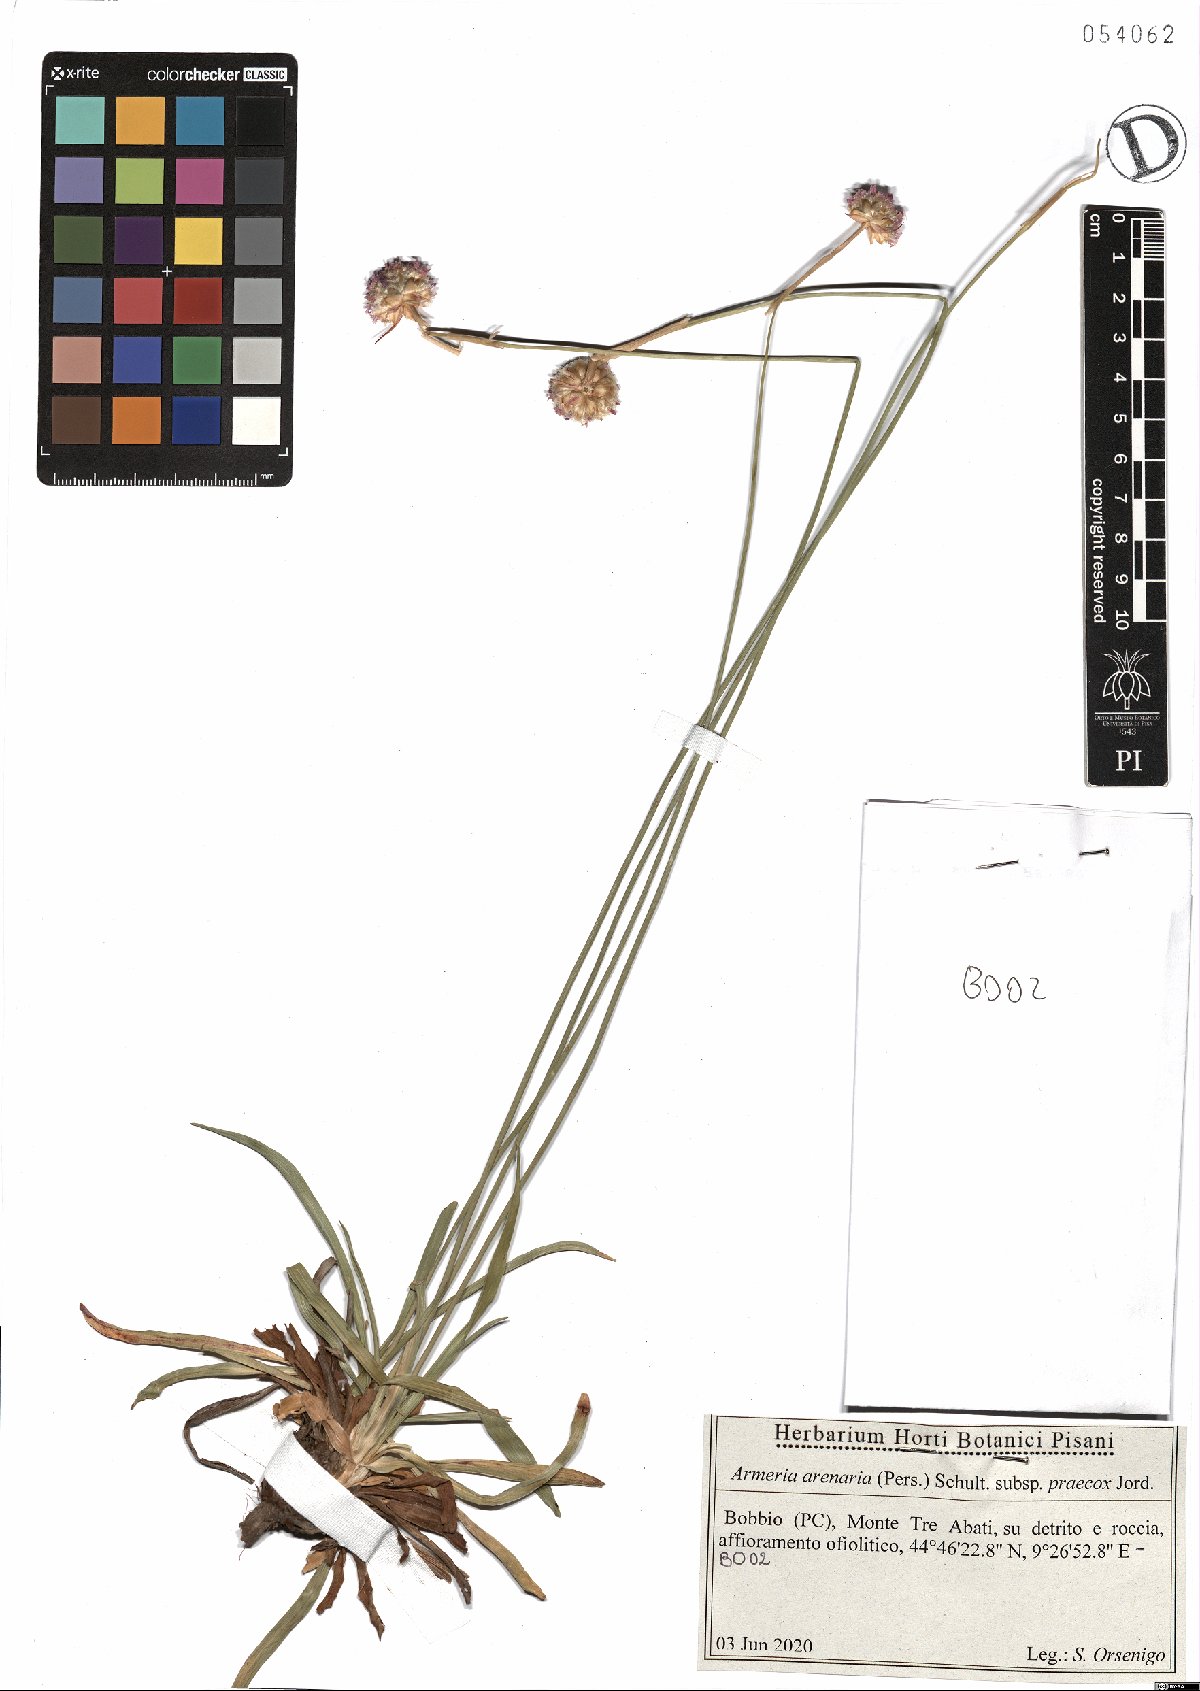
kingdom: Plantae
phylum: Tracheophyta
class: Magnoliopsida
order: Caryophyllales
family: Plumbaginaceae
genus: Armeria
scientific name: Armeria arenaria
